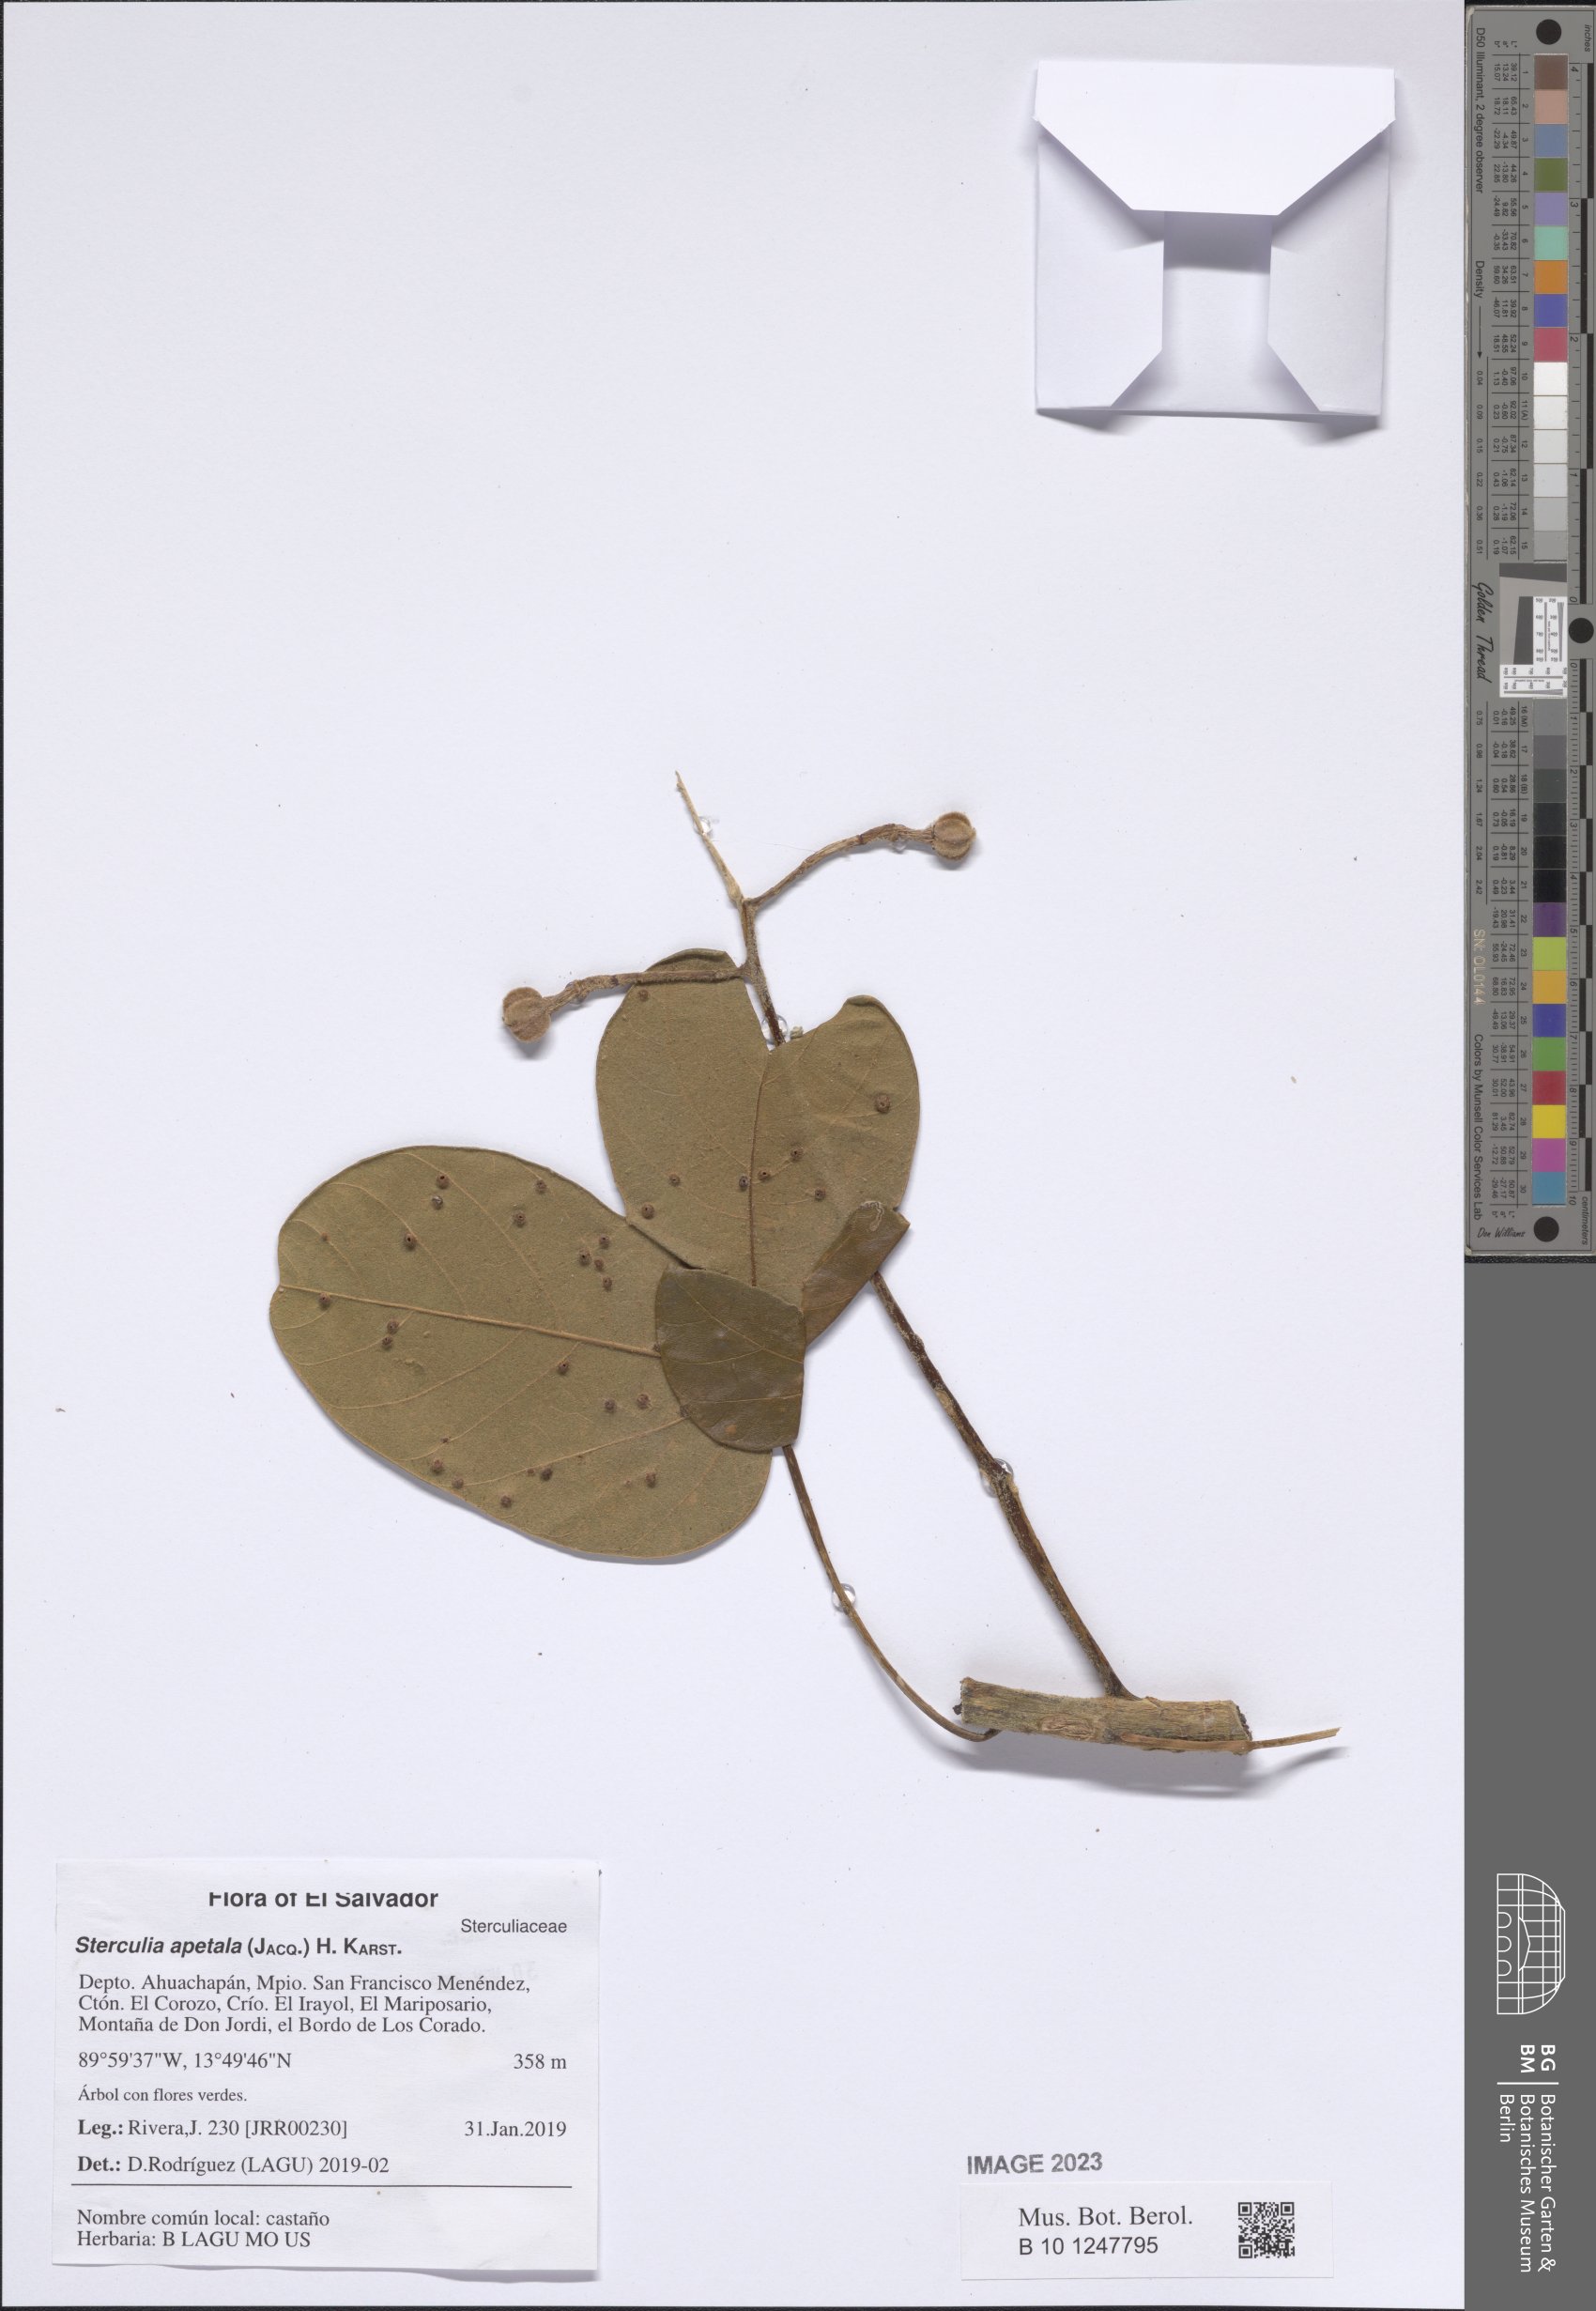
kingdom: Plantae
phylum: Tracheophyta
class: Magnoliopsida
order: Malvales
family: Malvaceae
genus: Sterculia
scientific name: Sterculia apetala
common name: Panama tree
